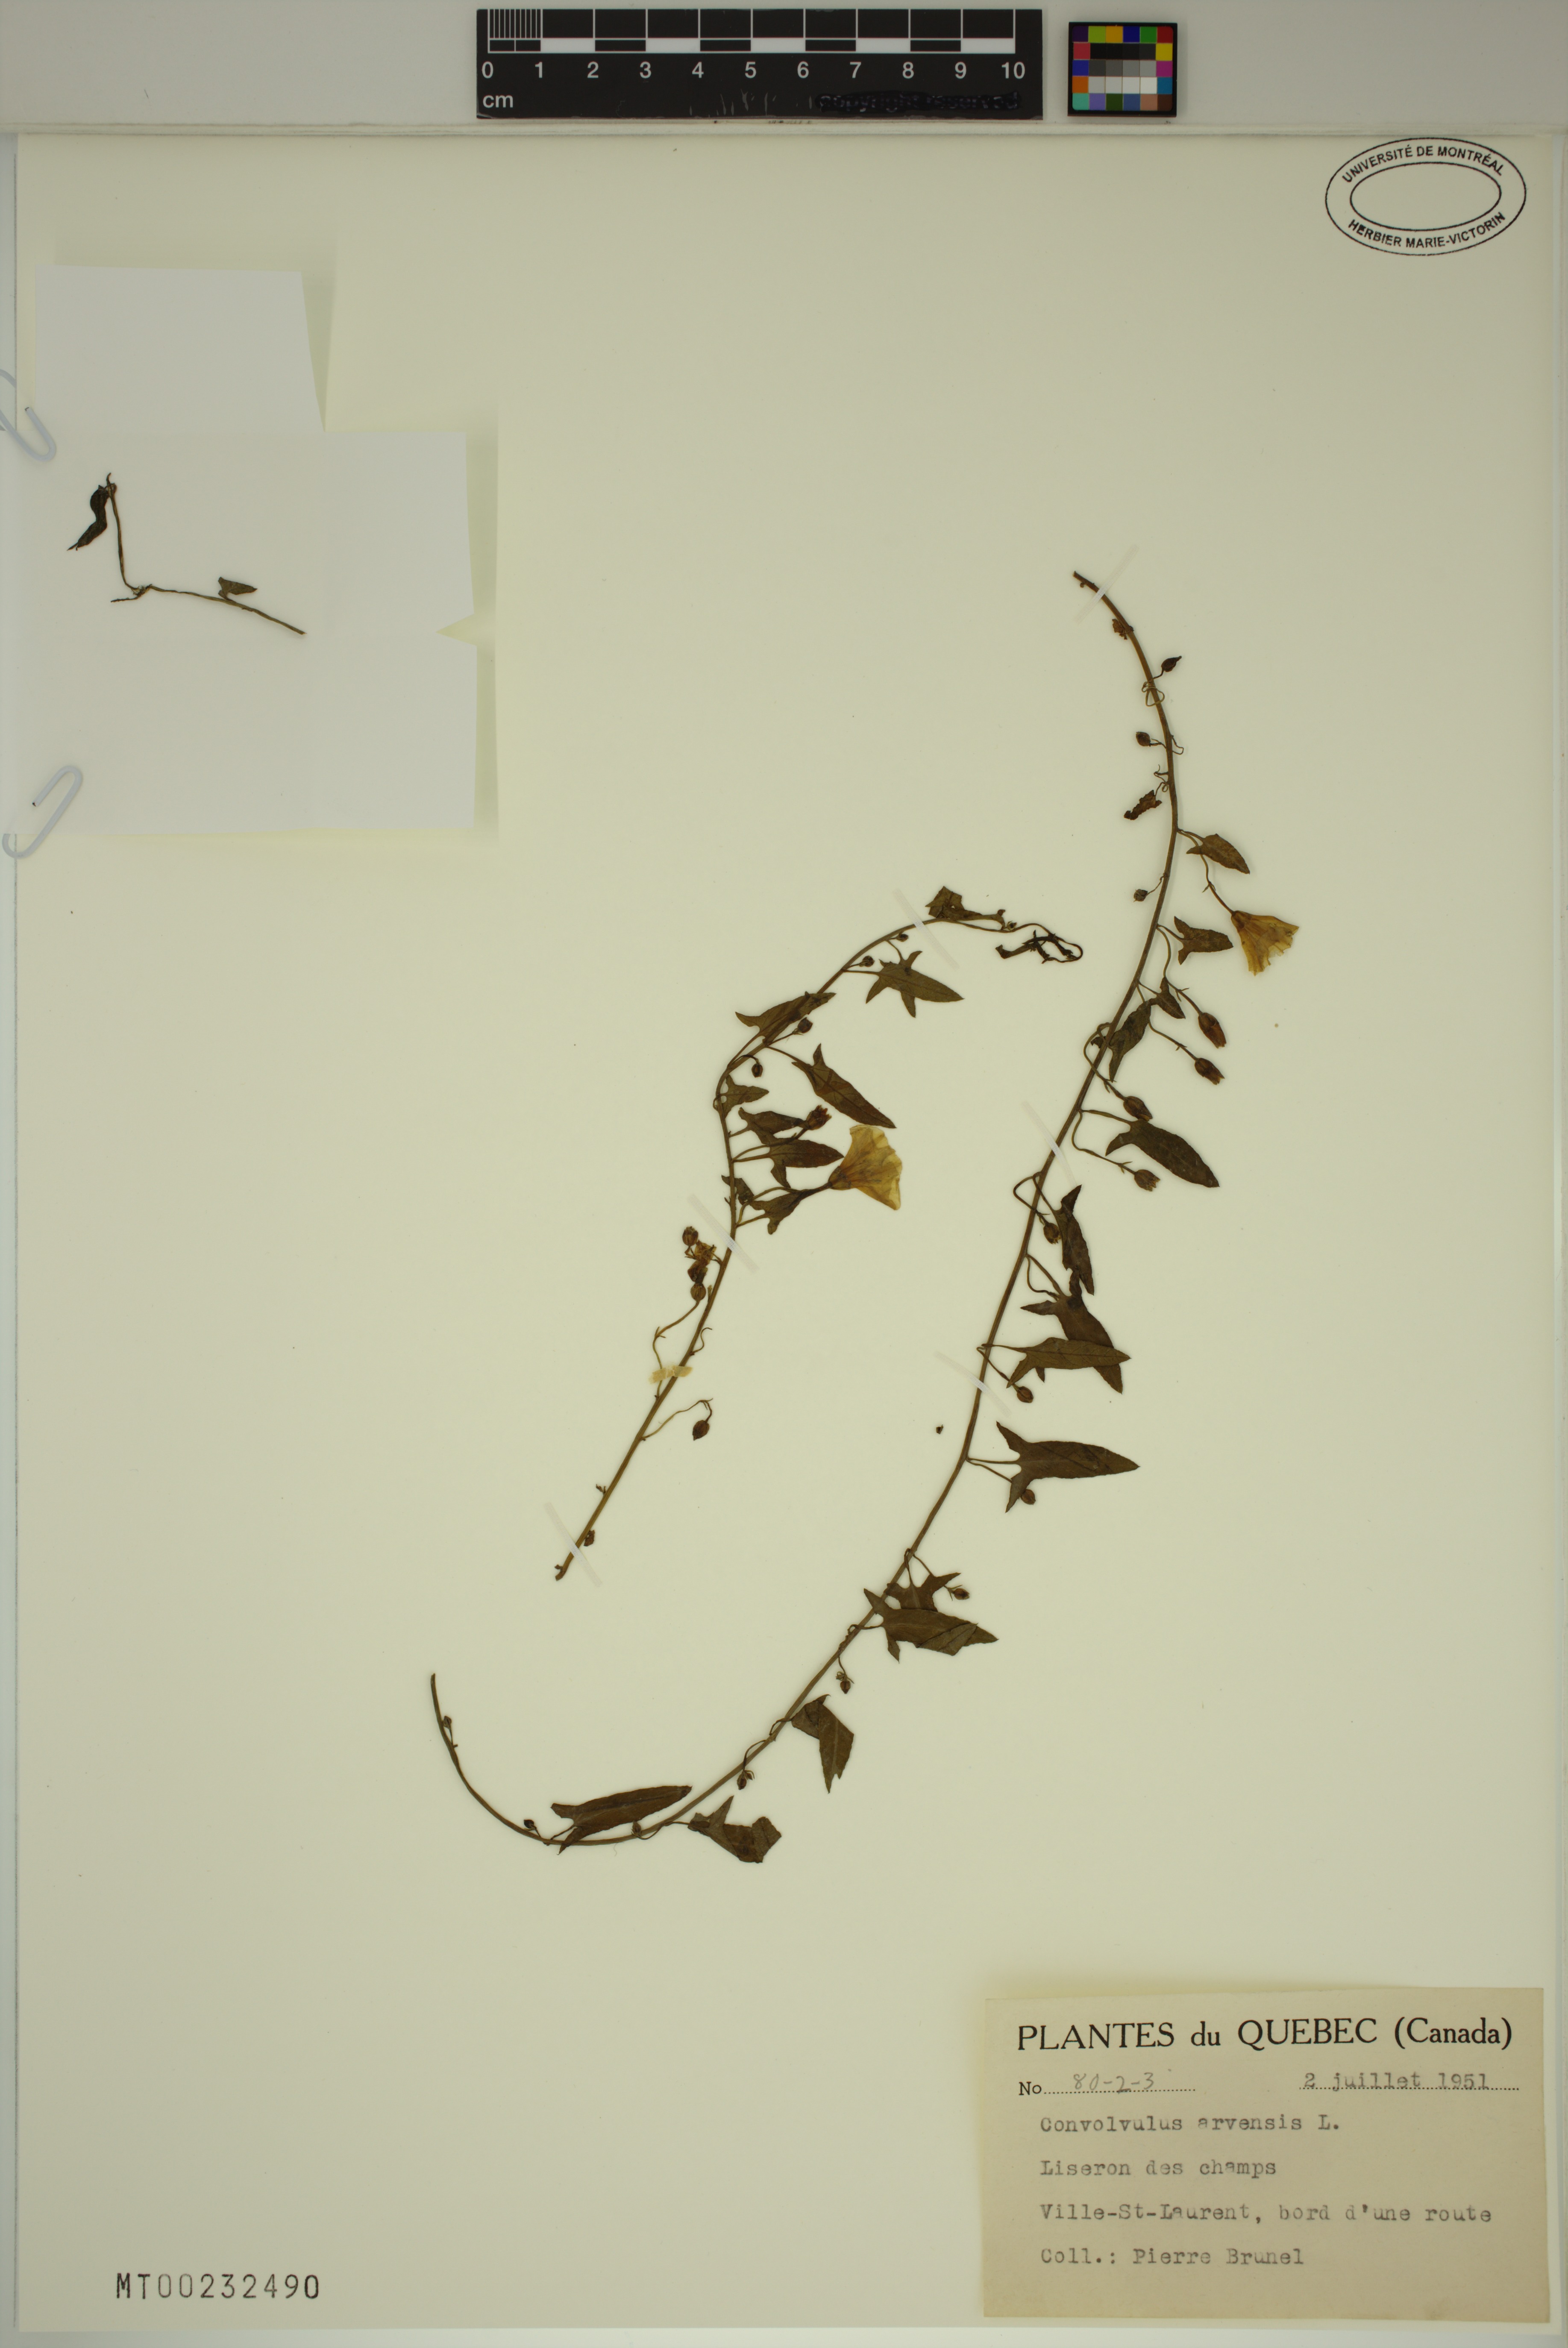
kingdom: Plantae
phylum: Tracheophyta
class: Magnoliopsida
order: Solanales
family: Convolvulaceae
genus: Convolvulus
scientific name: Convolvulus arvensis
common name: Field bindweed
